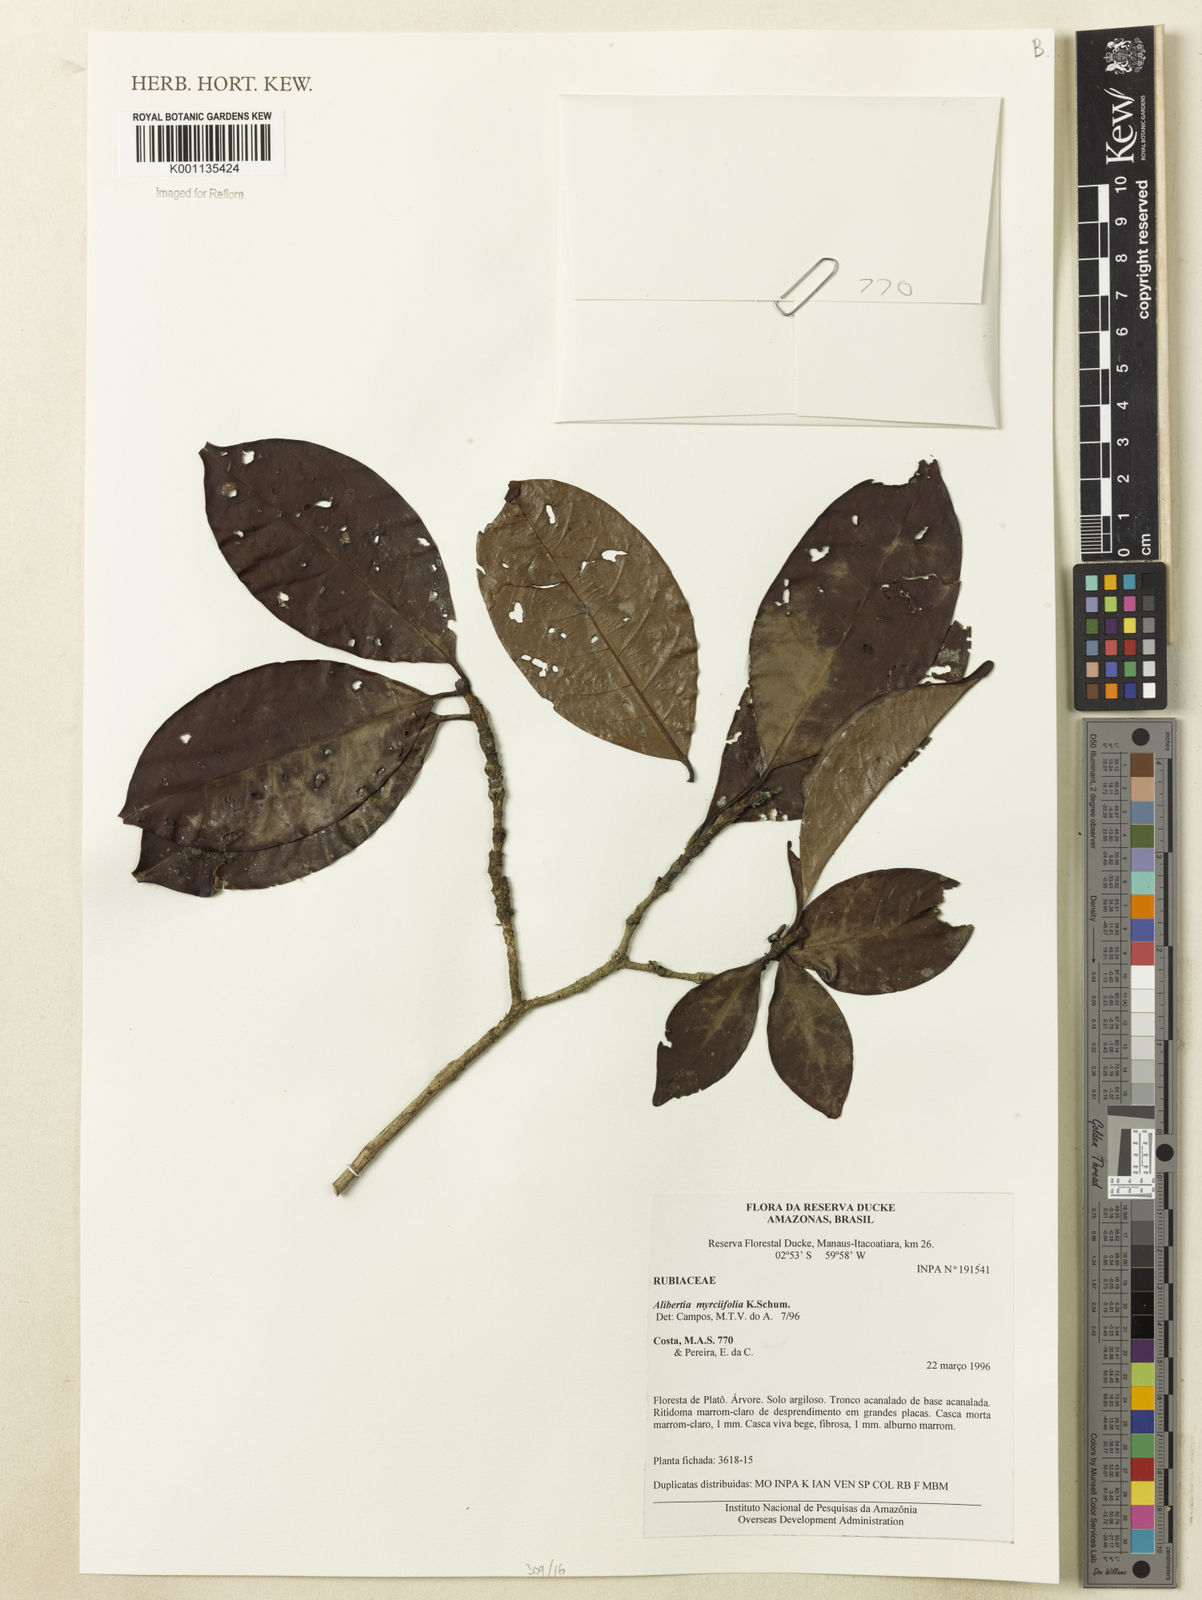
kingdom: Plantae
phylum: Tracheophyta
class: Magnoliopsida
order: Gentianales
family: Rubiaceae
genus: Cordiera
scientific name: Cordiera myrciifolia
